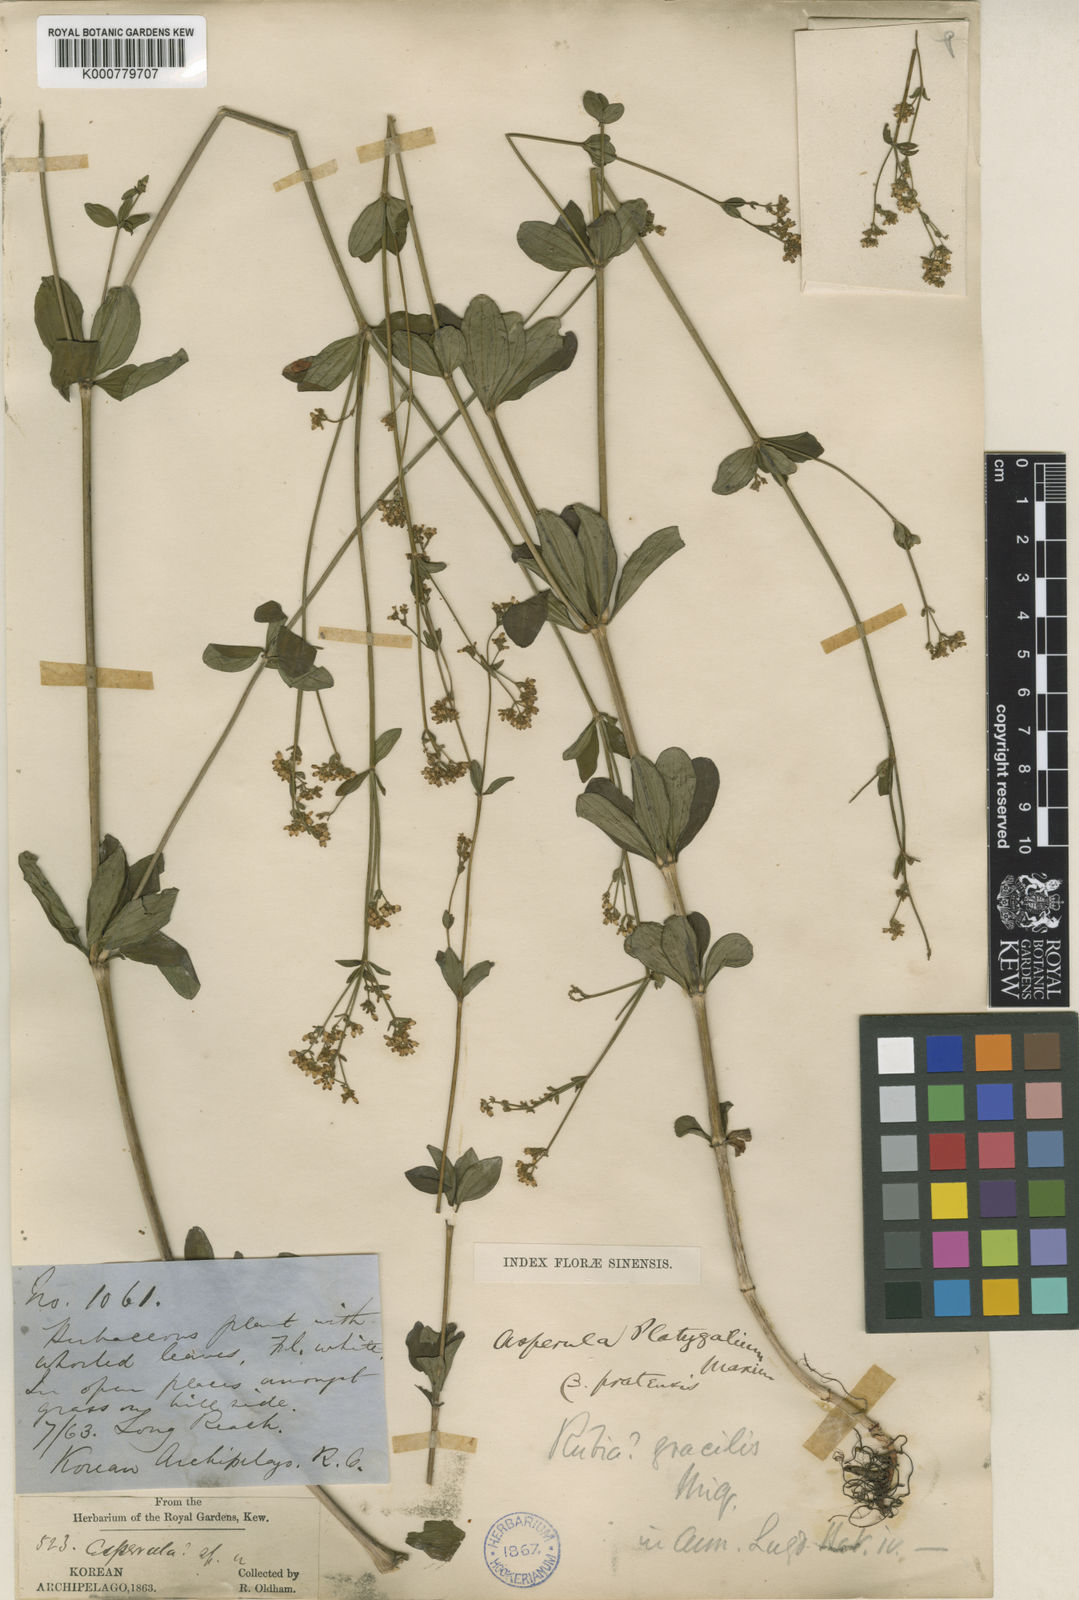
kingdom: Plantae
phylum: Tracheophyta
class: Magnoliopsida
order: Gentianales
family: Rubiaceae
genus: Galium
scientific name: Galium maximoviczii
